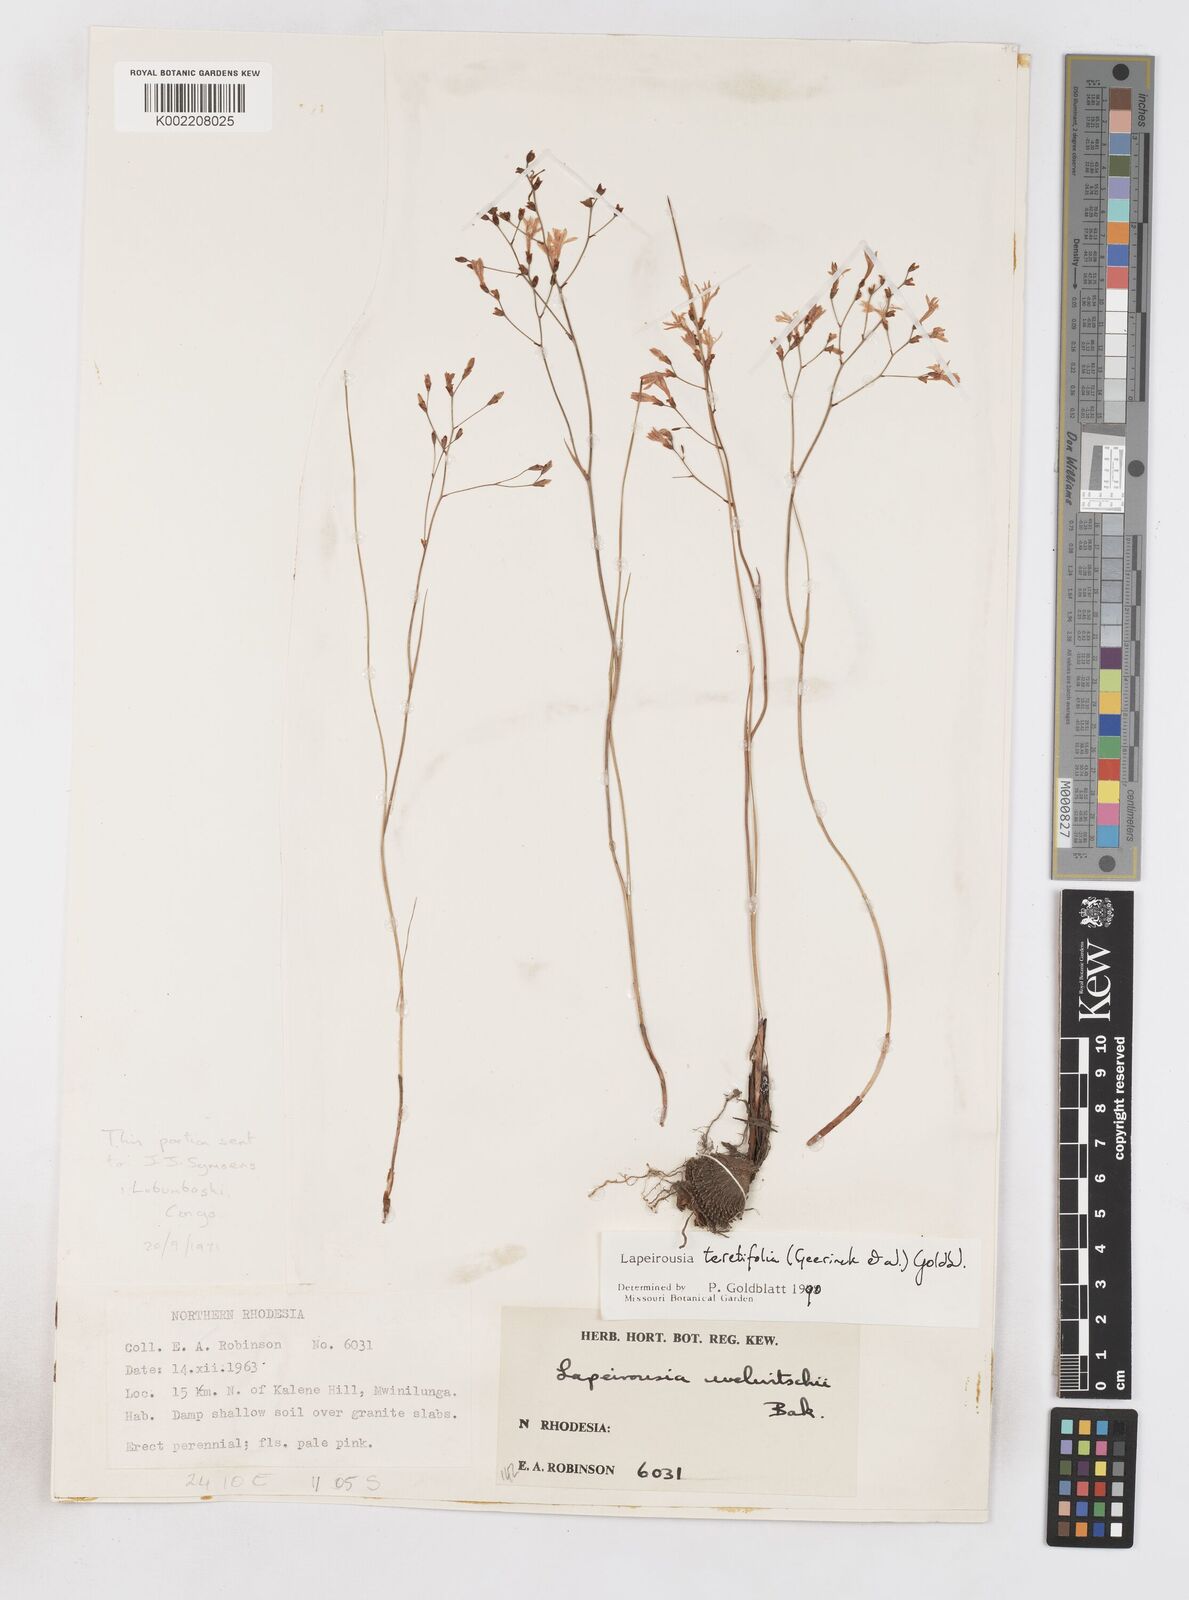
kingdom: Plantae
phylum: Tracheophyta
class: Liliopsida
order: Asparagales
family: Iridaceae
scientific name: Iridaceae
